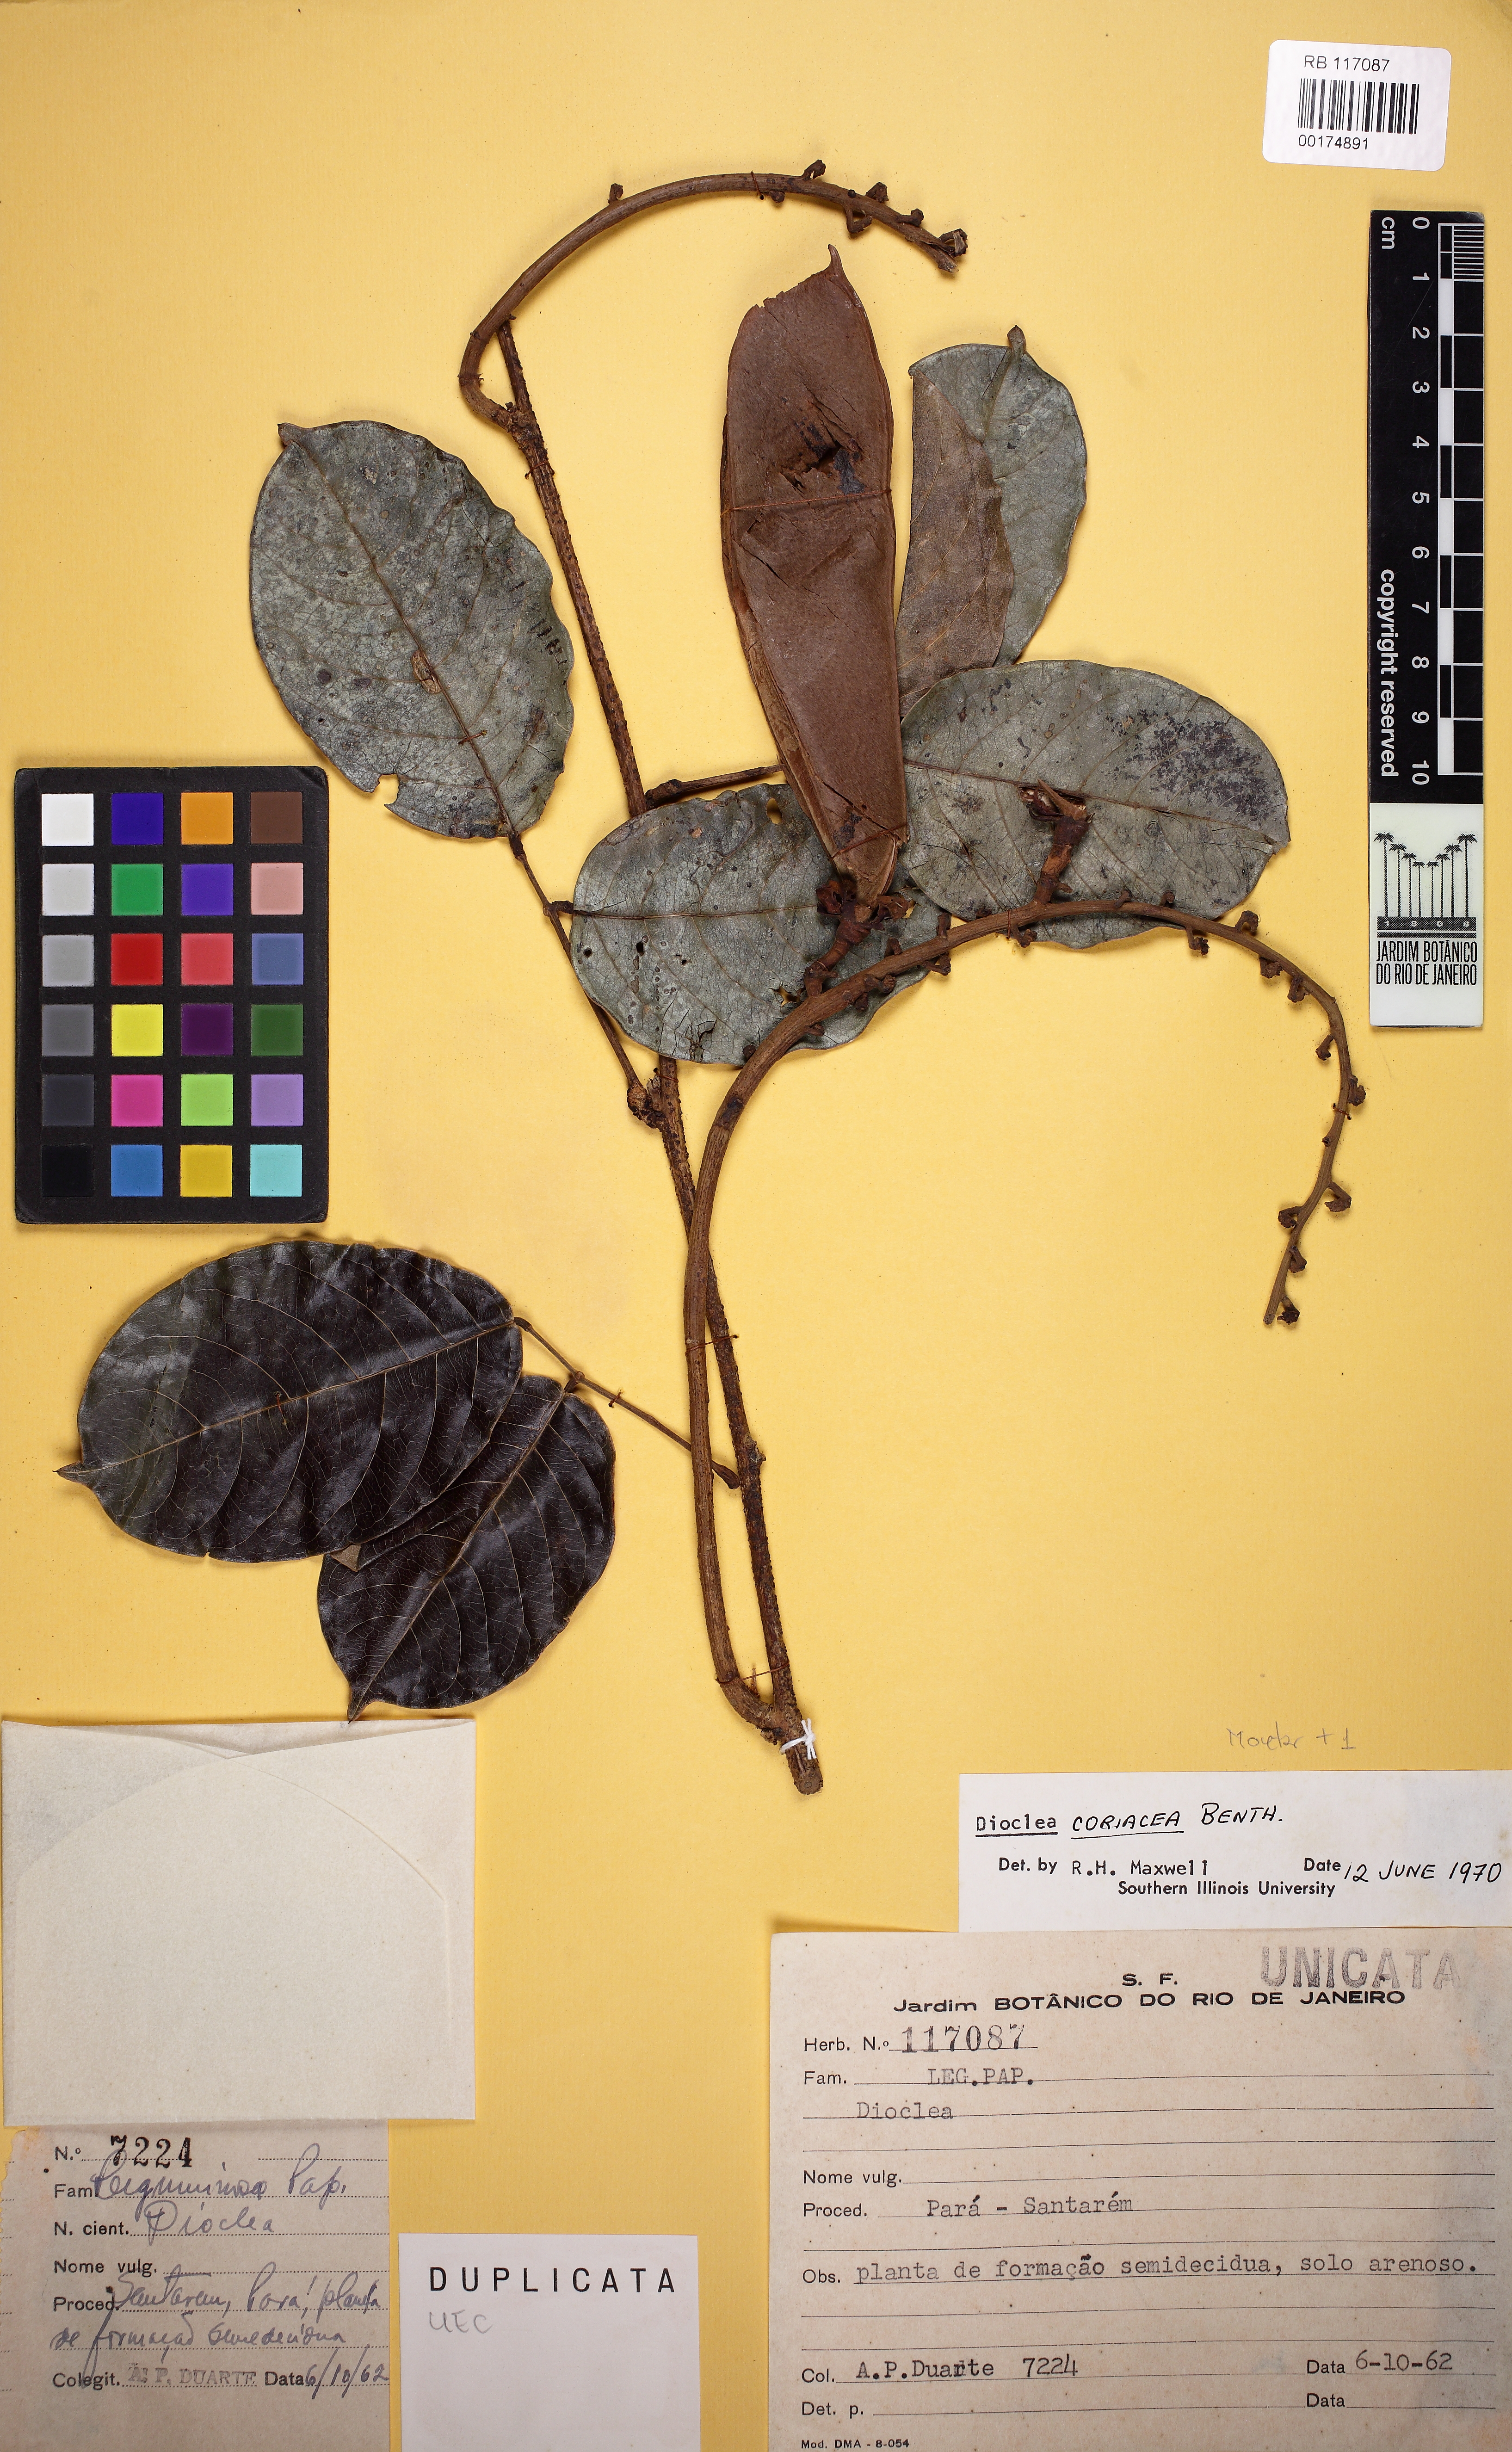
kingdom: Plantae
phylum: Tracheophyta
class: Magnoliopsida
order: Fabales
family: Fabaceae
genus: Macropsychanthus
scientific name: Macropsychanthus coriaceus
